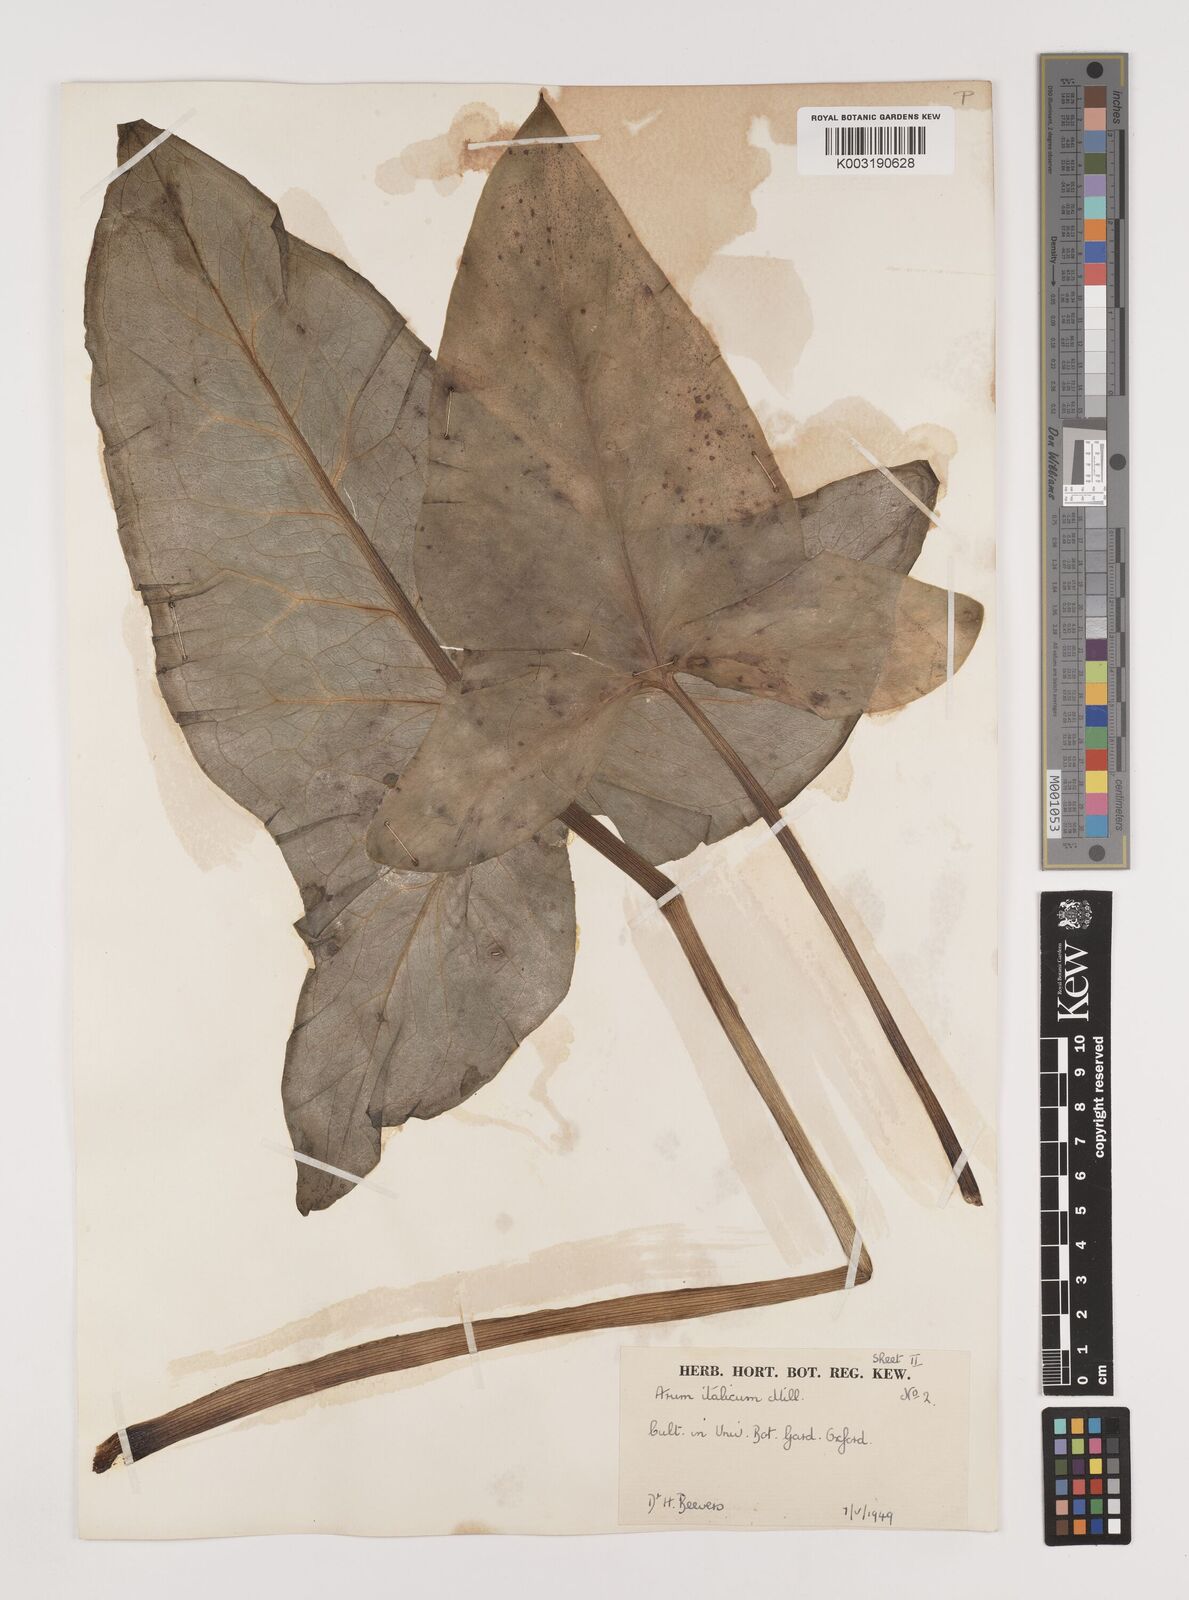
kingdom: Plantae
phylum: Tracheophyta
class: Liliopsida
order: Alismatales
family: Araceae
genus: Arum
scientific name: Arum italicum
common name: Italian lords-and-ladies
